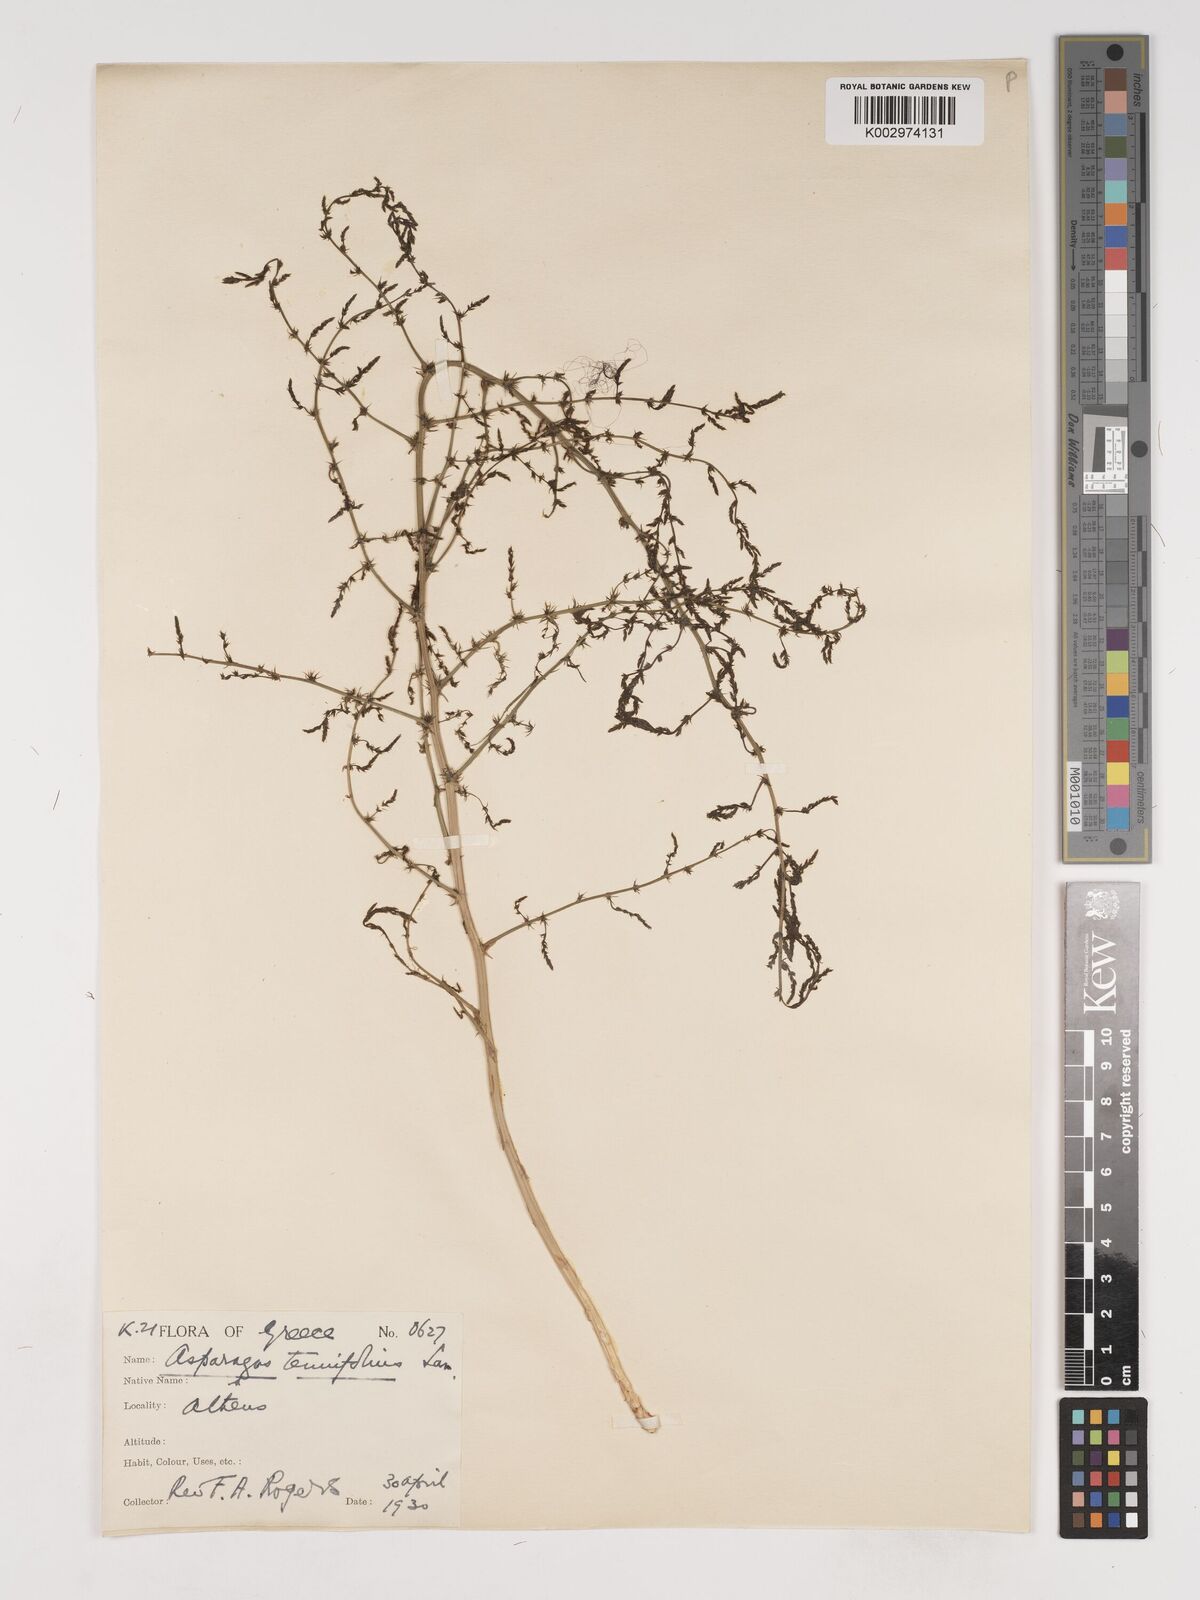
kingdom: Plantae
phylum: Tracheophyta
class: Liliopsida
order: Asparagales
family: Asparagaceae
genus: Asparagus
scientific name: Asparagus tenuifolius
